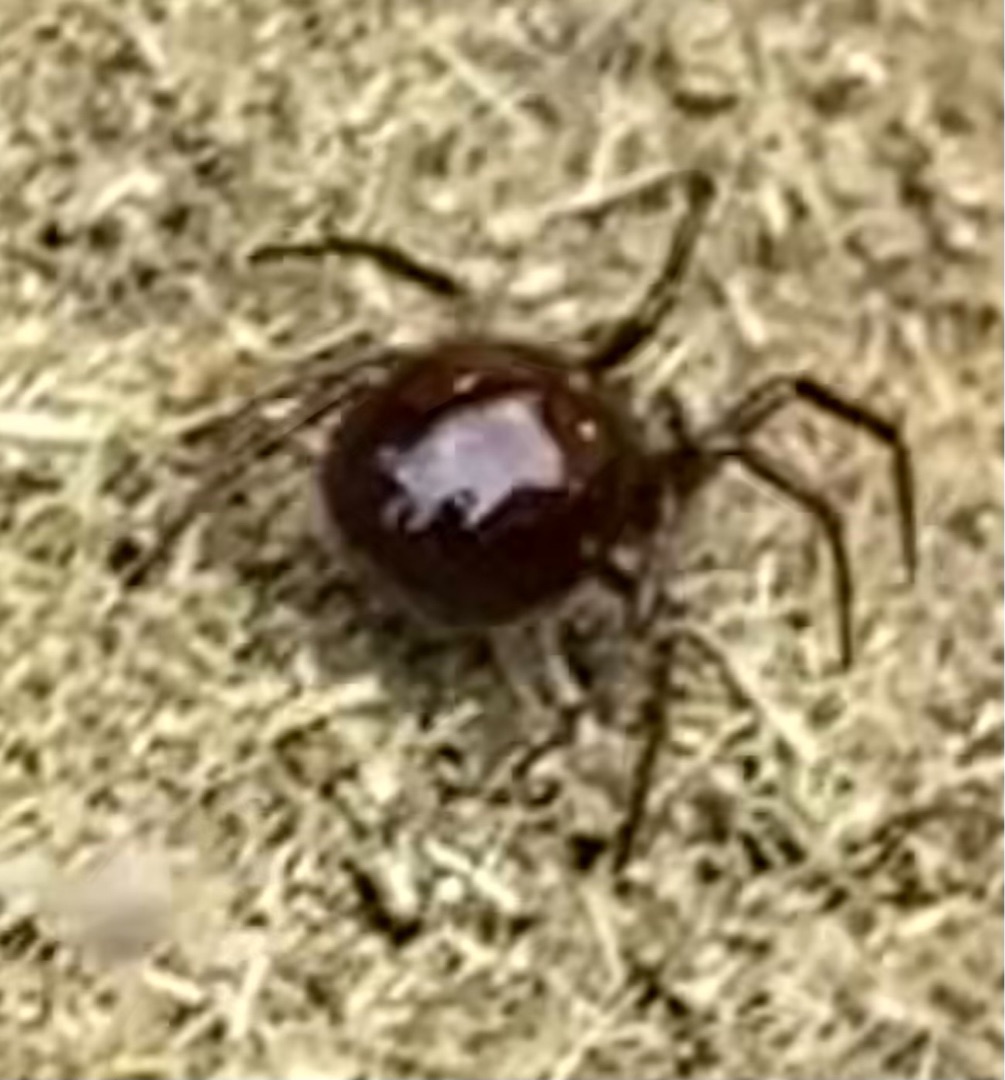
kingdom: Animalia
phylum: Arthropoda
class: Arachnida
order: Araneae
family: Theridiidae
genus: Steatoda
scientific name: Steatoda bipunctata
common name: Fedtedderkop
